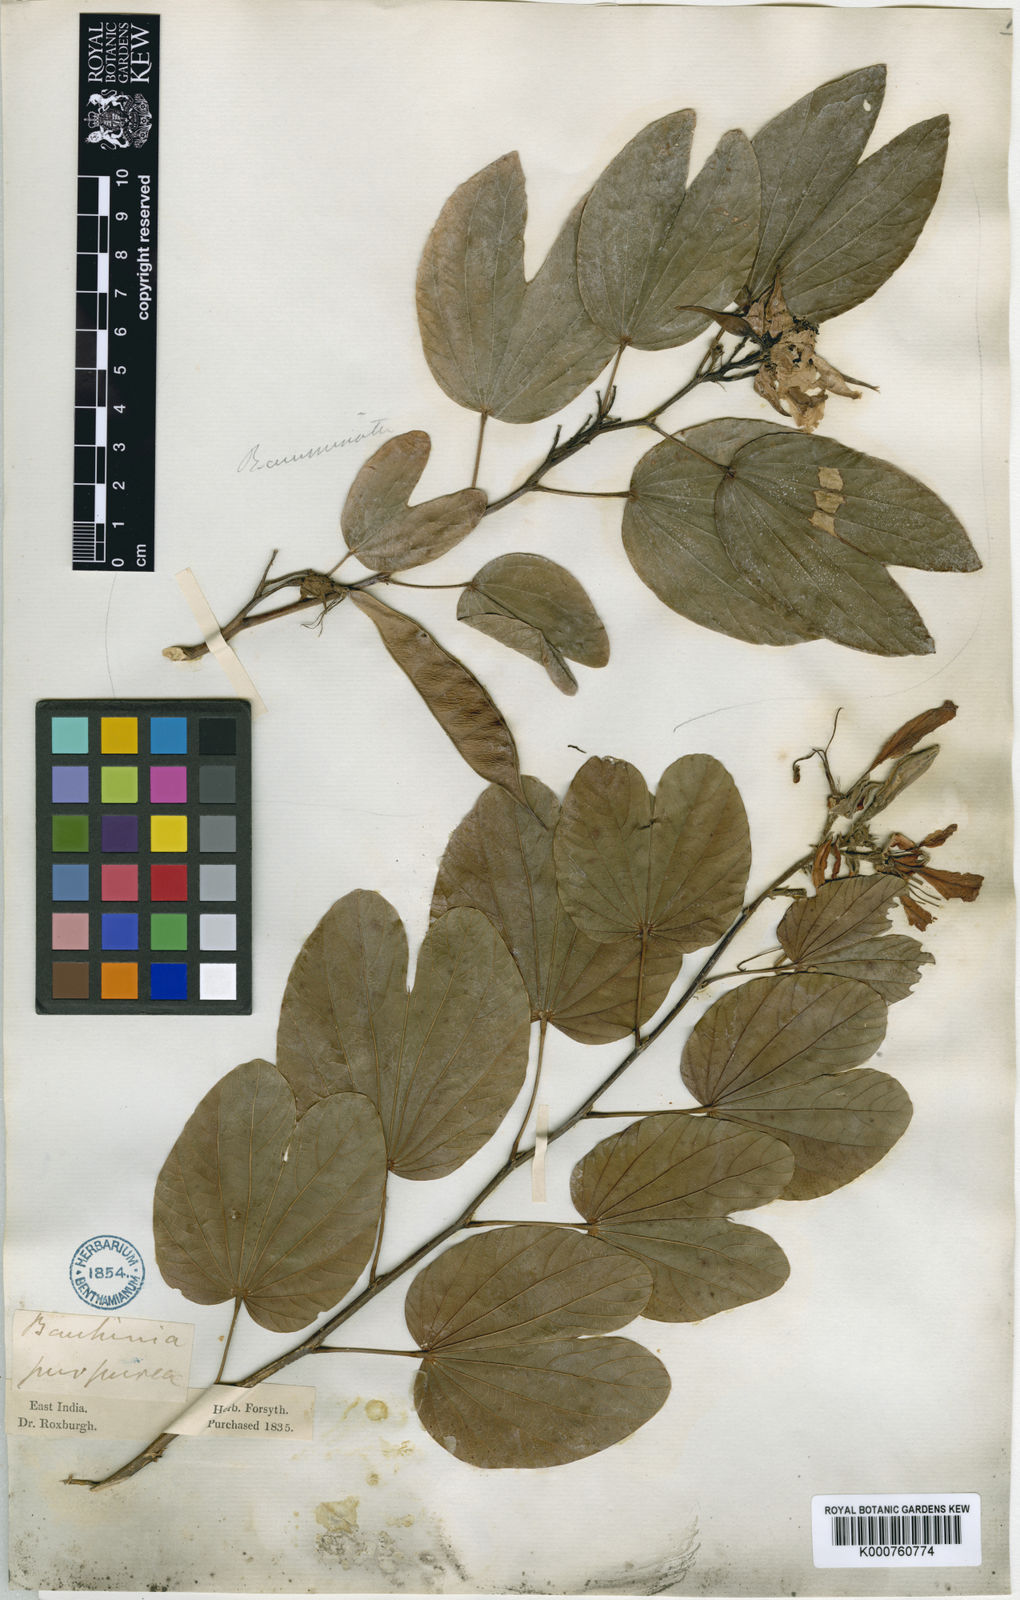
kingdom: Plantae
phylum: Tracheophyta
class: Magnoliopsida
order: Fabales
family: Fabaceae
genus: Bauhinia
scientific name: Bauhinia purpurea
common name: Butterfly-tree
